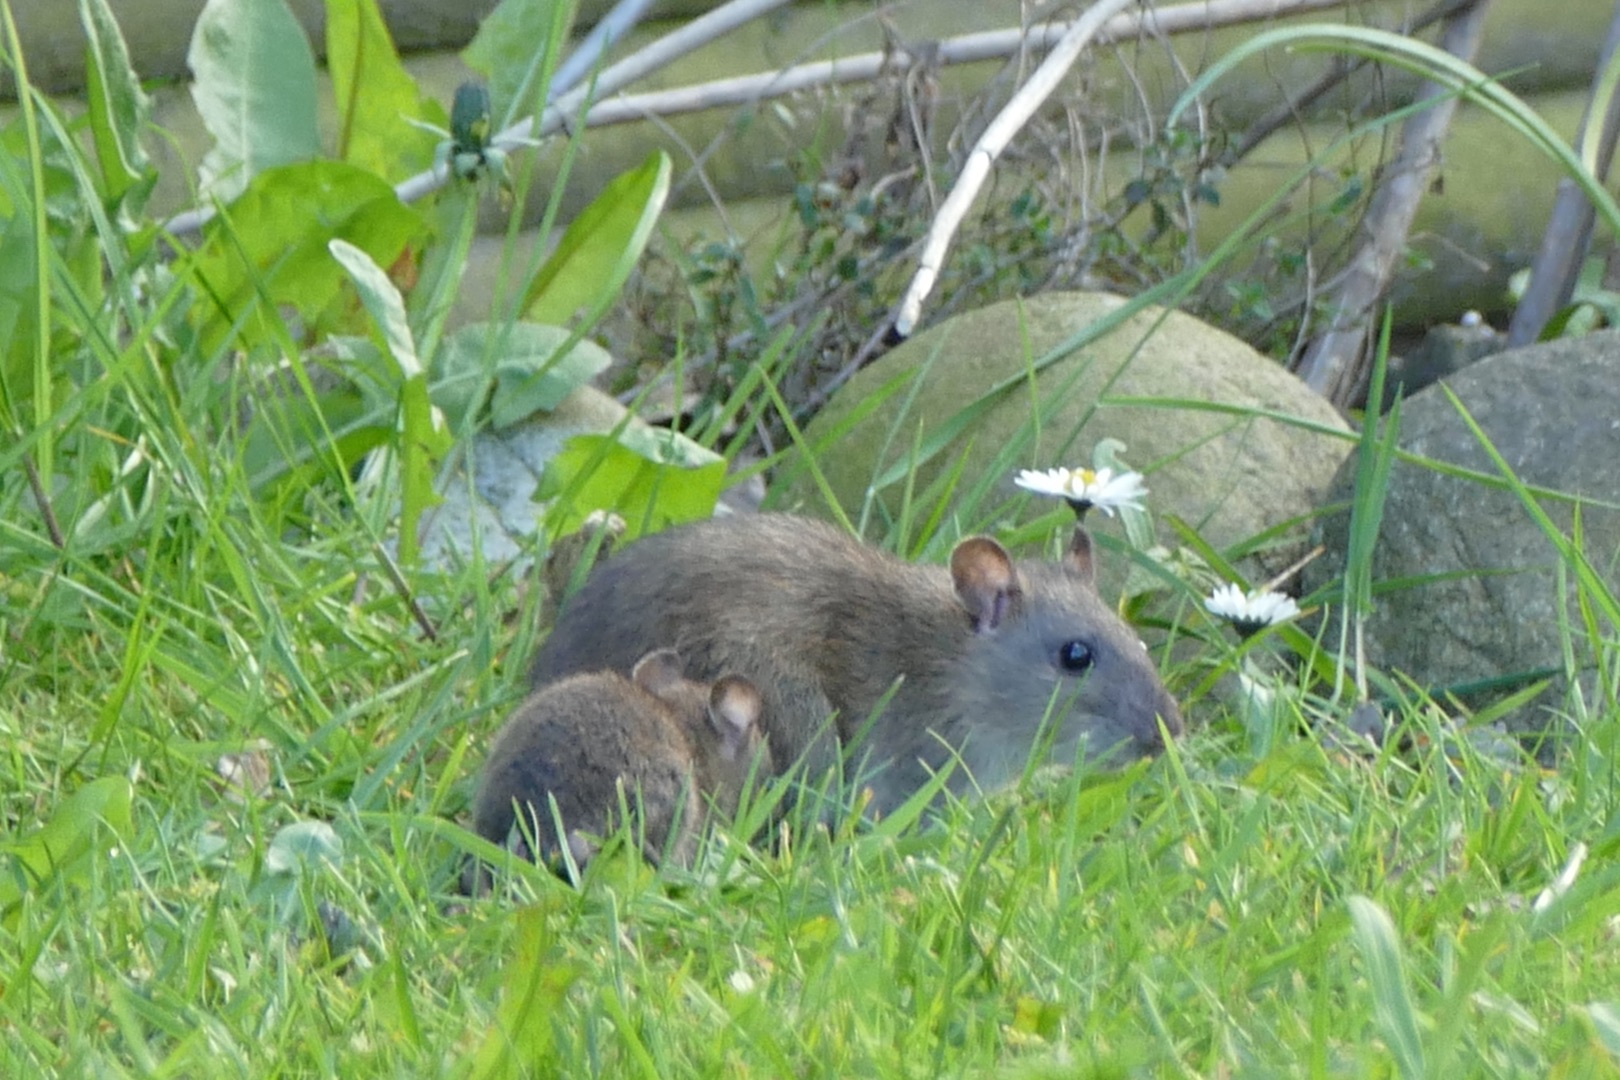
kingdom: Animalia
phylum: Chordata
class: Mammalia
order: Rodentia
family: Muridae
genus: Rattus
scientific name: Rattus norvegicus
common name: Brun rotte
